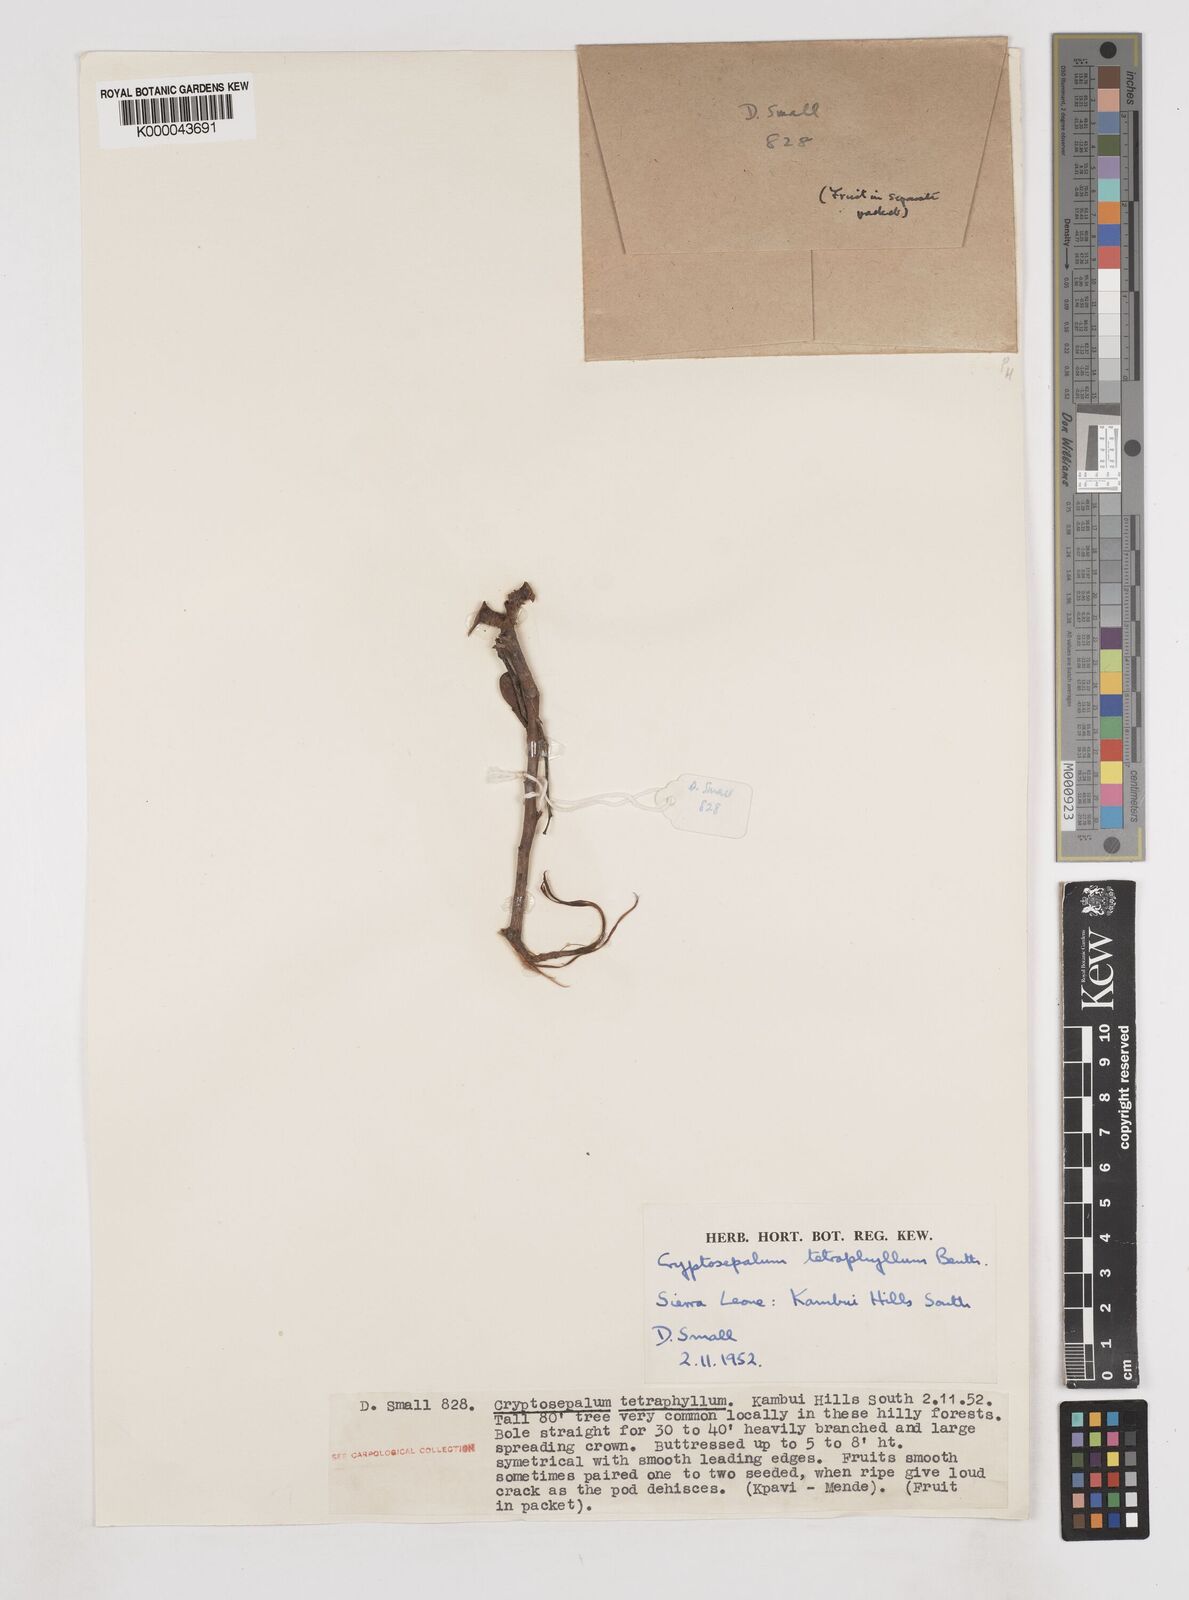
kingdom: Plantae
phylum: Tracheophyta
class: Magnoliopsida
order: Fabales
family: Fabaceae
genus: Cryptosepalum
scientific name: Cryptosepalum tetraphyllum
